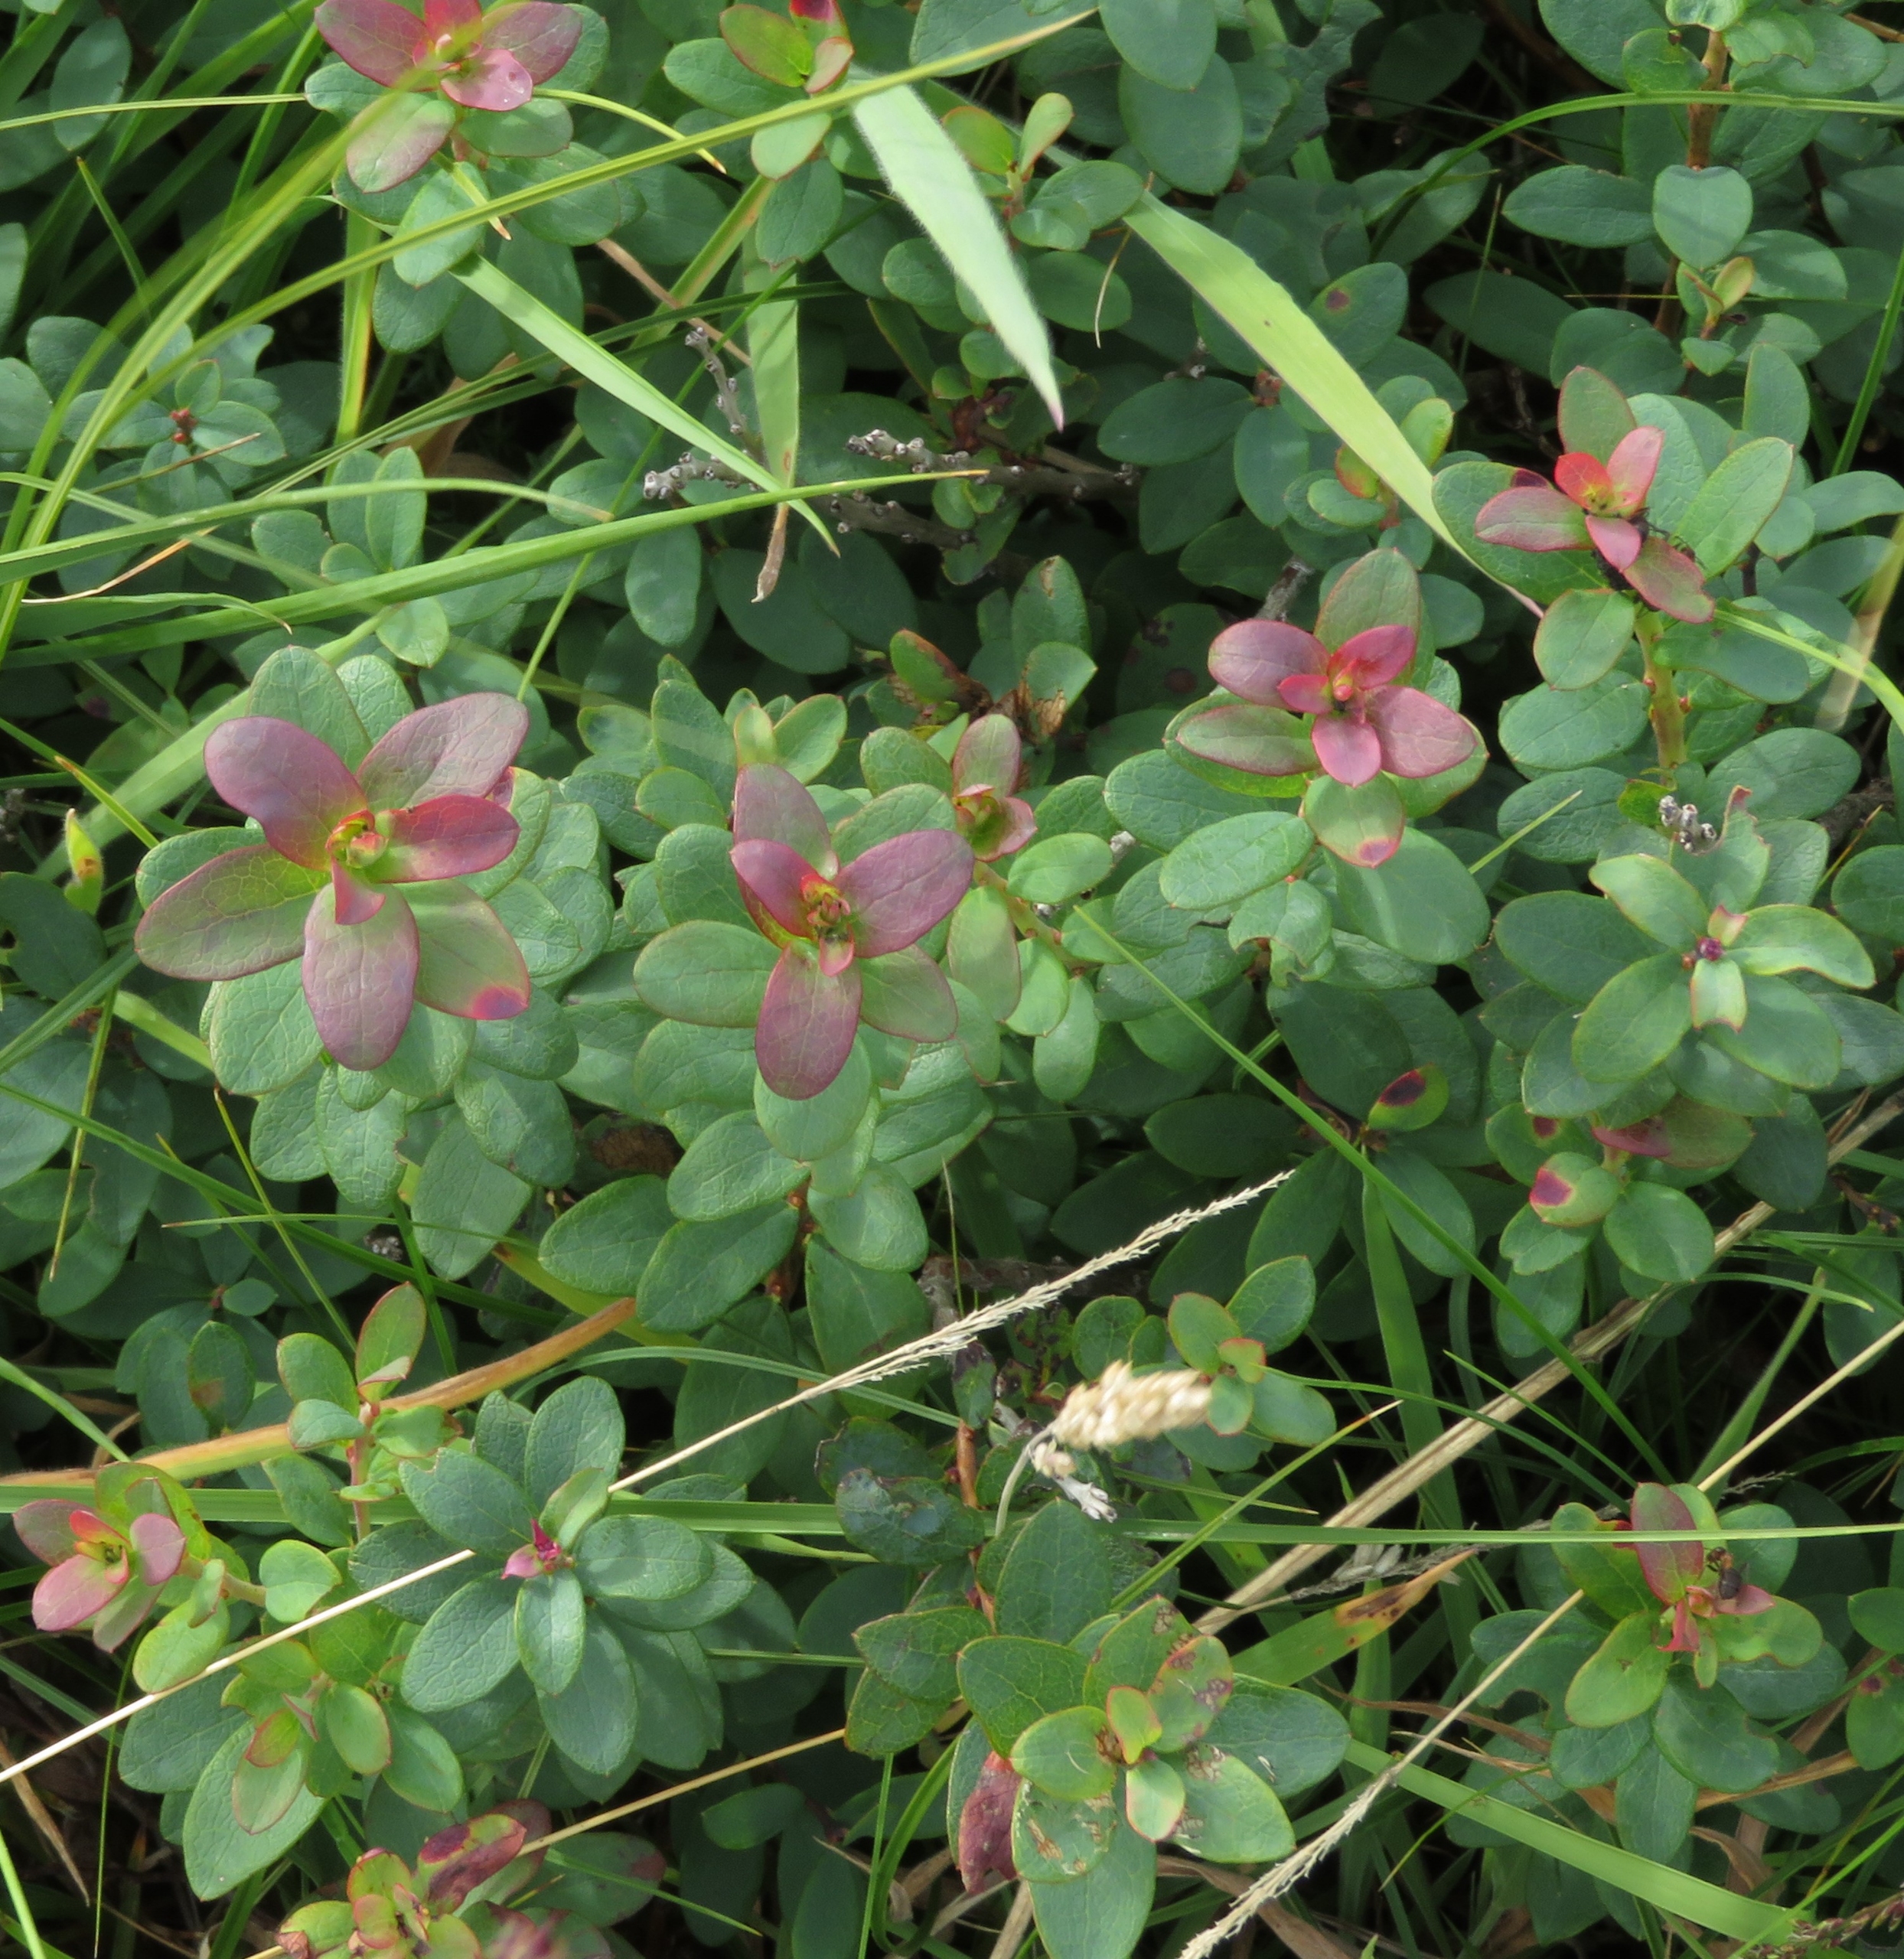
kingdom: Plantae
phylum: Tracheophyta
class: Magnoliopsida
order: Ericales
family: Ericaceae
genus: Vaccinium
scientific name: Vaccinium uliginosum
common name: Mose-bølle
